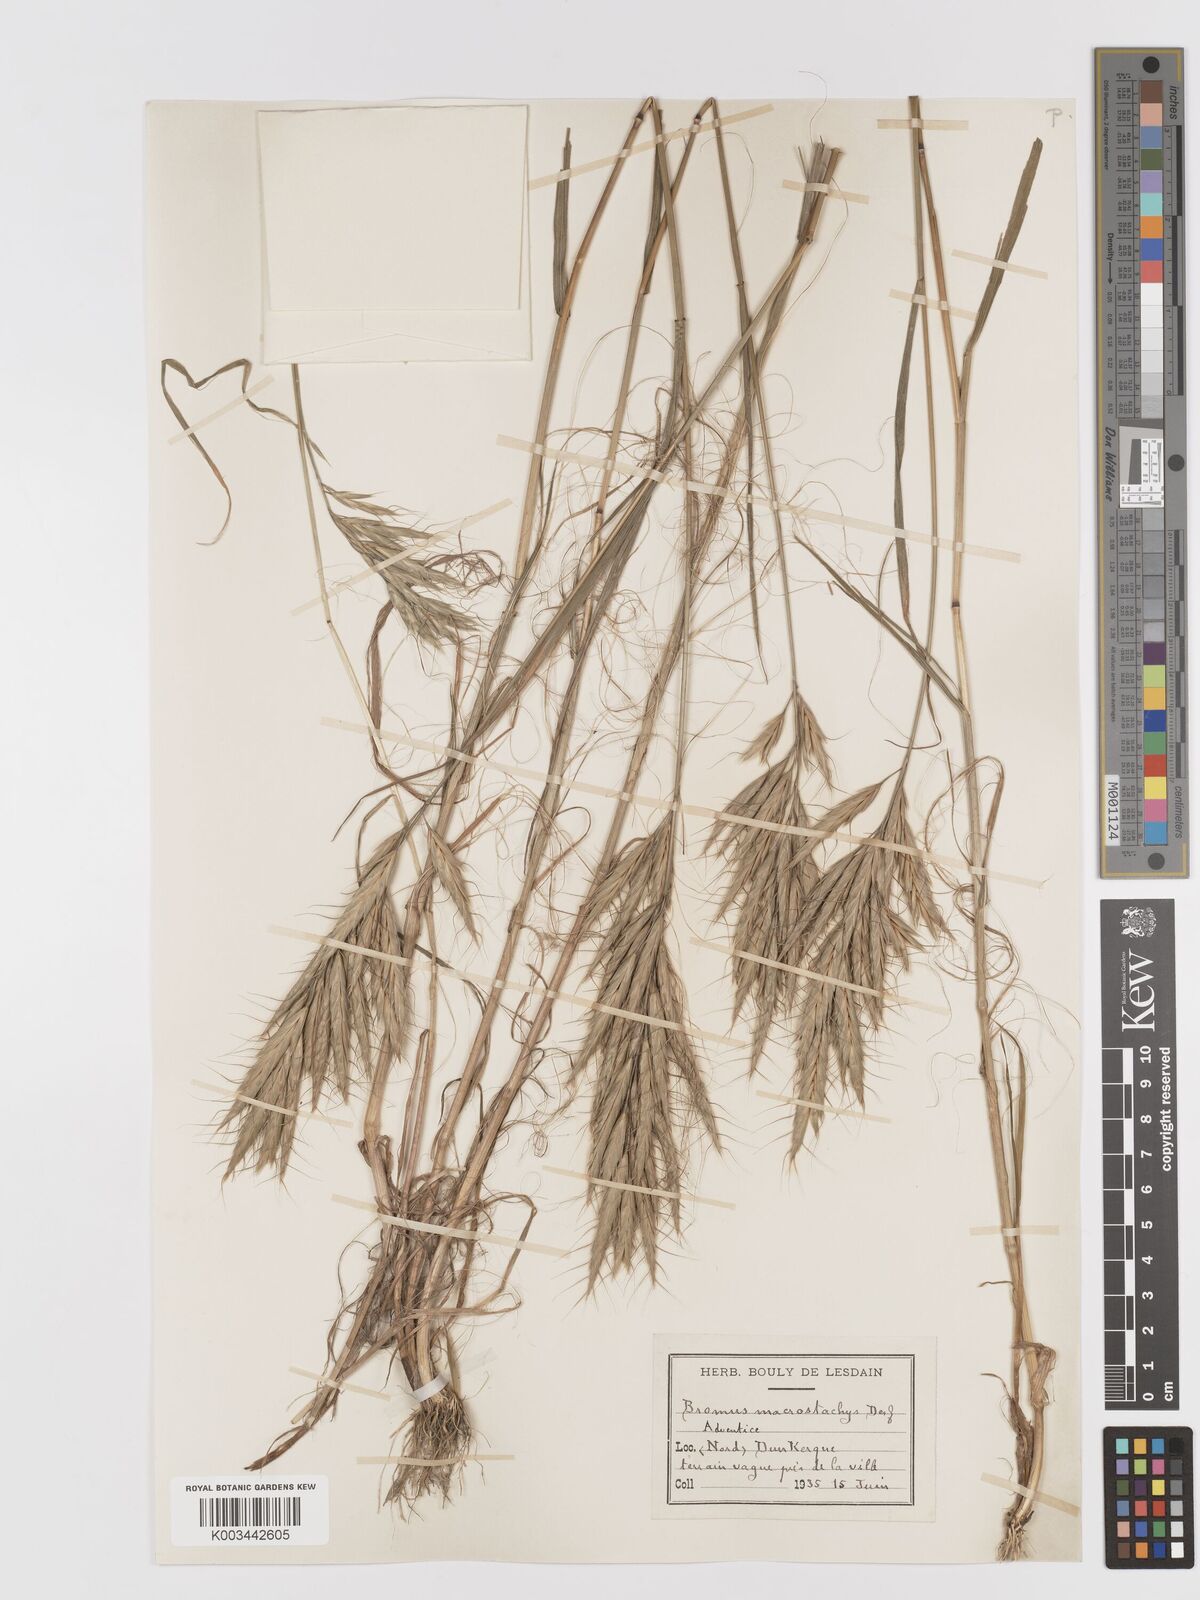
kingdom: Plantae
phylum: Tracheophyta
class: Liliopsida
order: Poales
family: Poaceae
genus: Bromus
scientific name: Bromus lanceolatus
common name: Mediterranean brome
